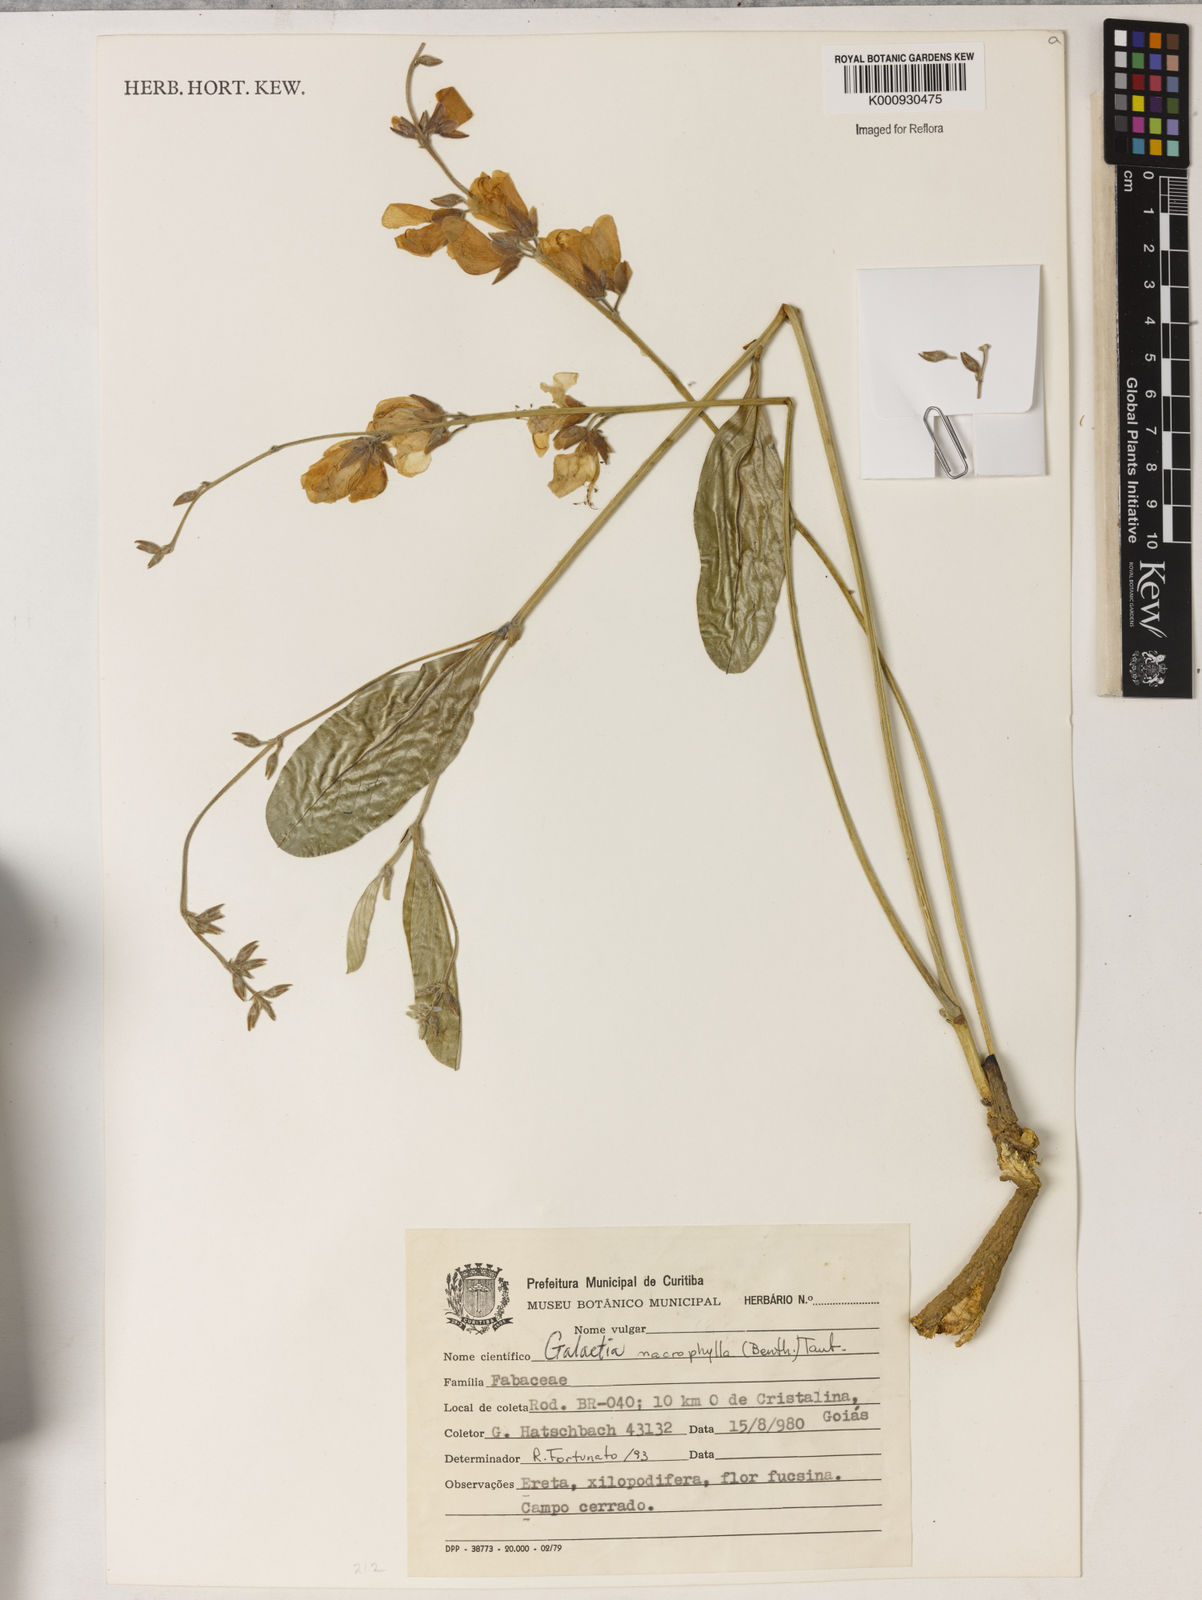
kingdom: Plantae
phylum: Tracheophyta
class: Magnoliopsida
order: Fabales
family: Fabaceae
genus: Cerradicola
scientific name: Cerradicola boavista
